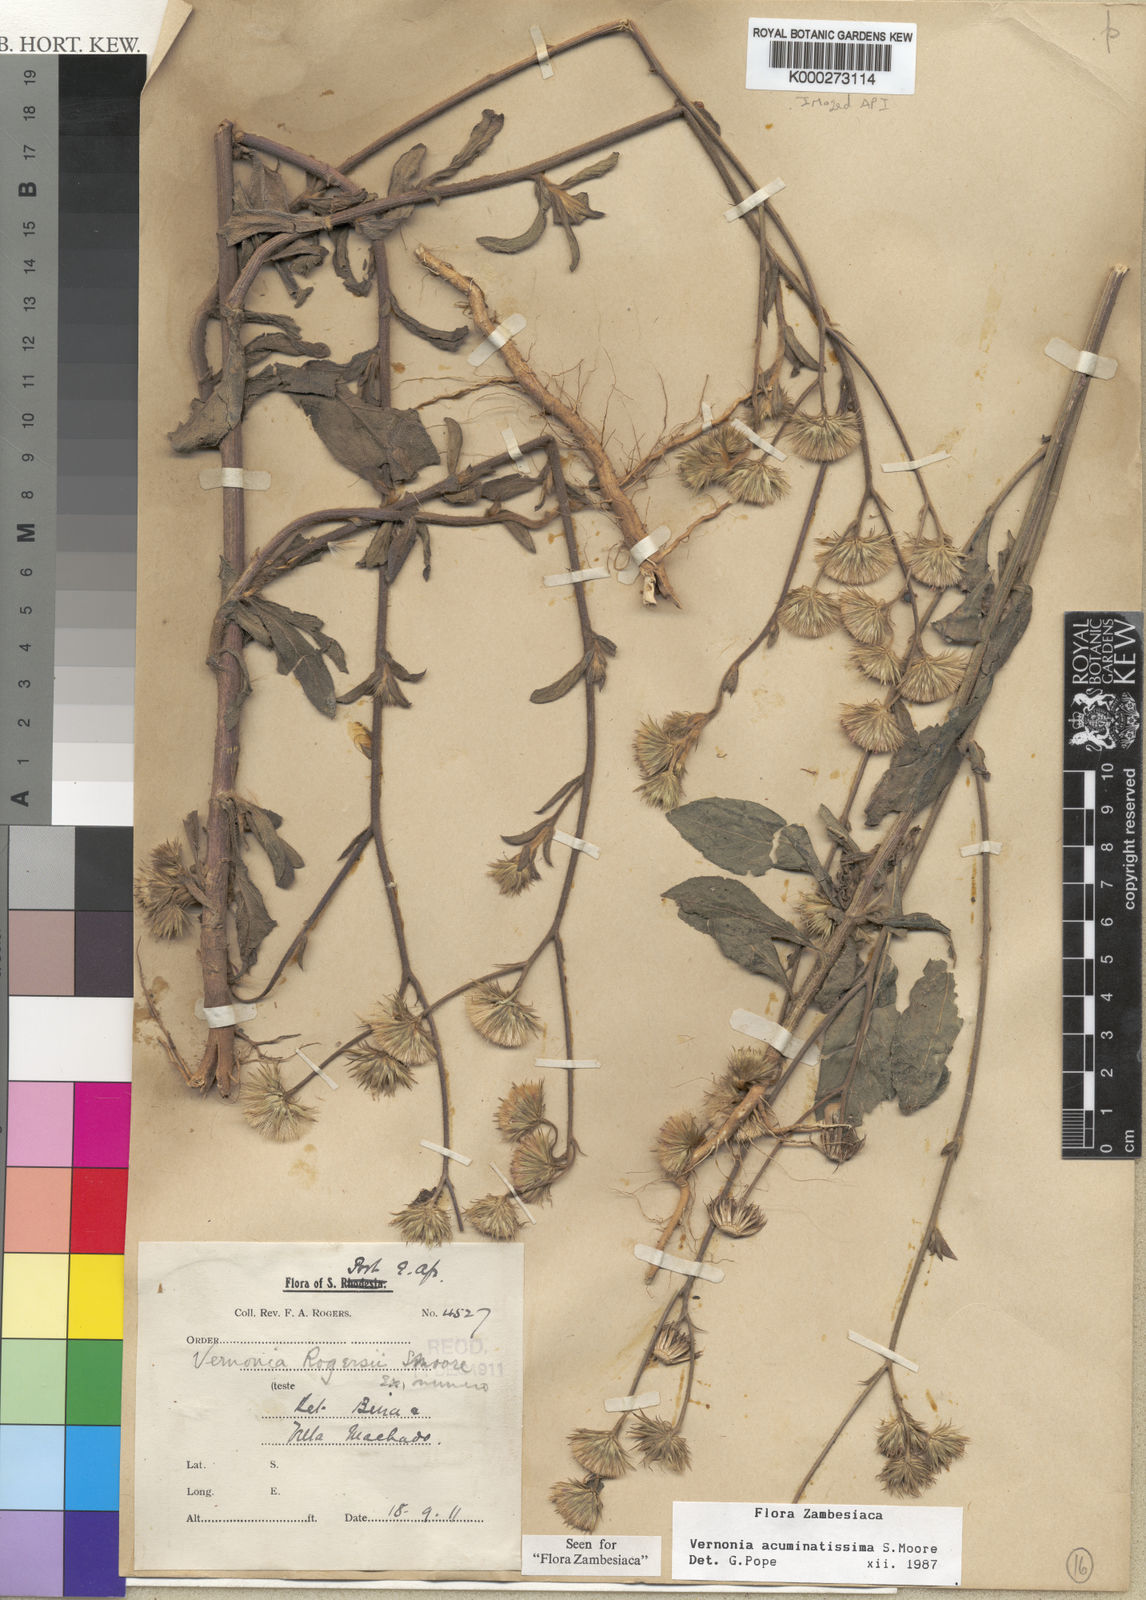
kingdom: Plantae
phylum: Tracheophyta
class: Magnoliopsida
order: Asterales
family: Asteraceae
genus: Vernoniastrum
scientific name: Vernoniastrum acuminatissimum
